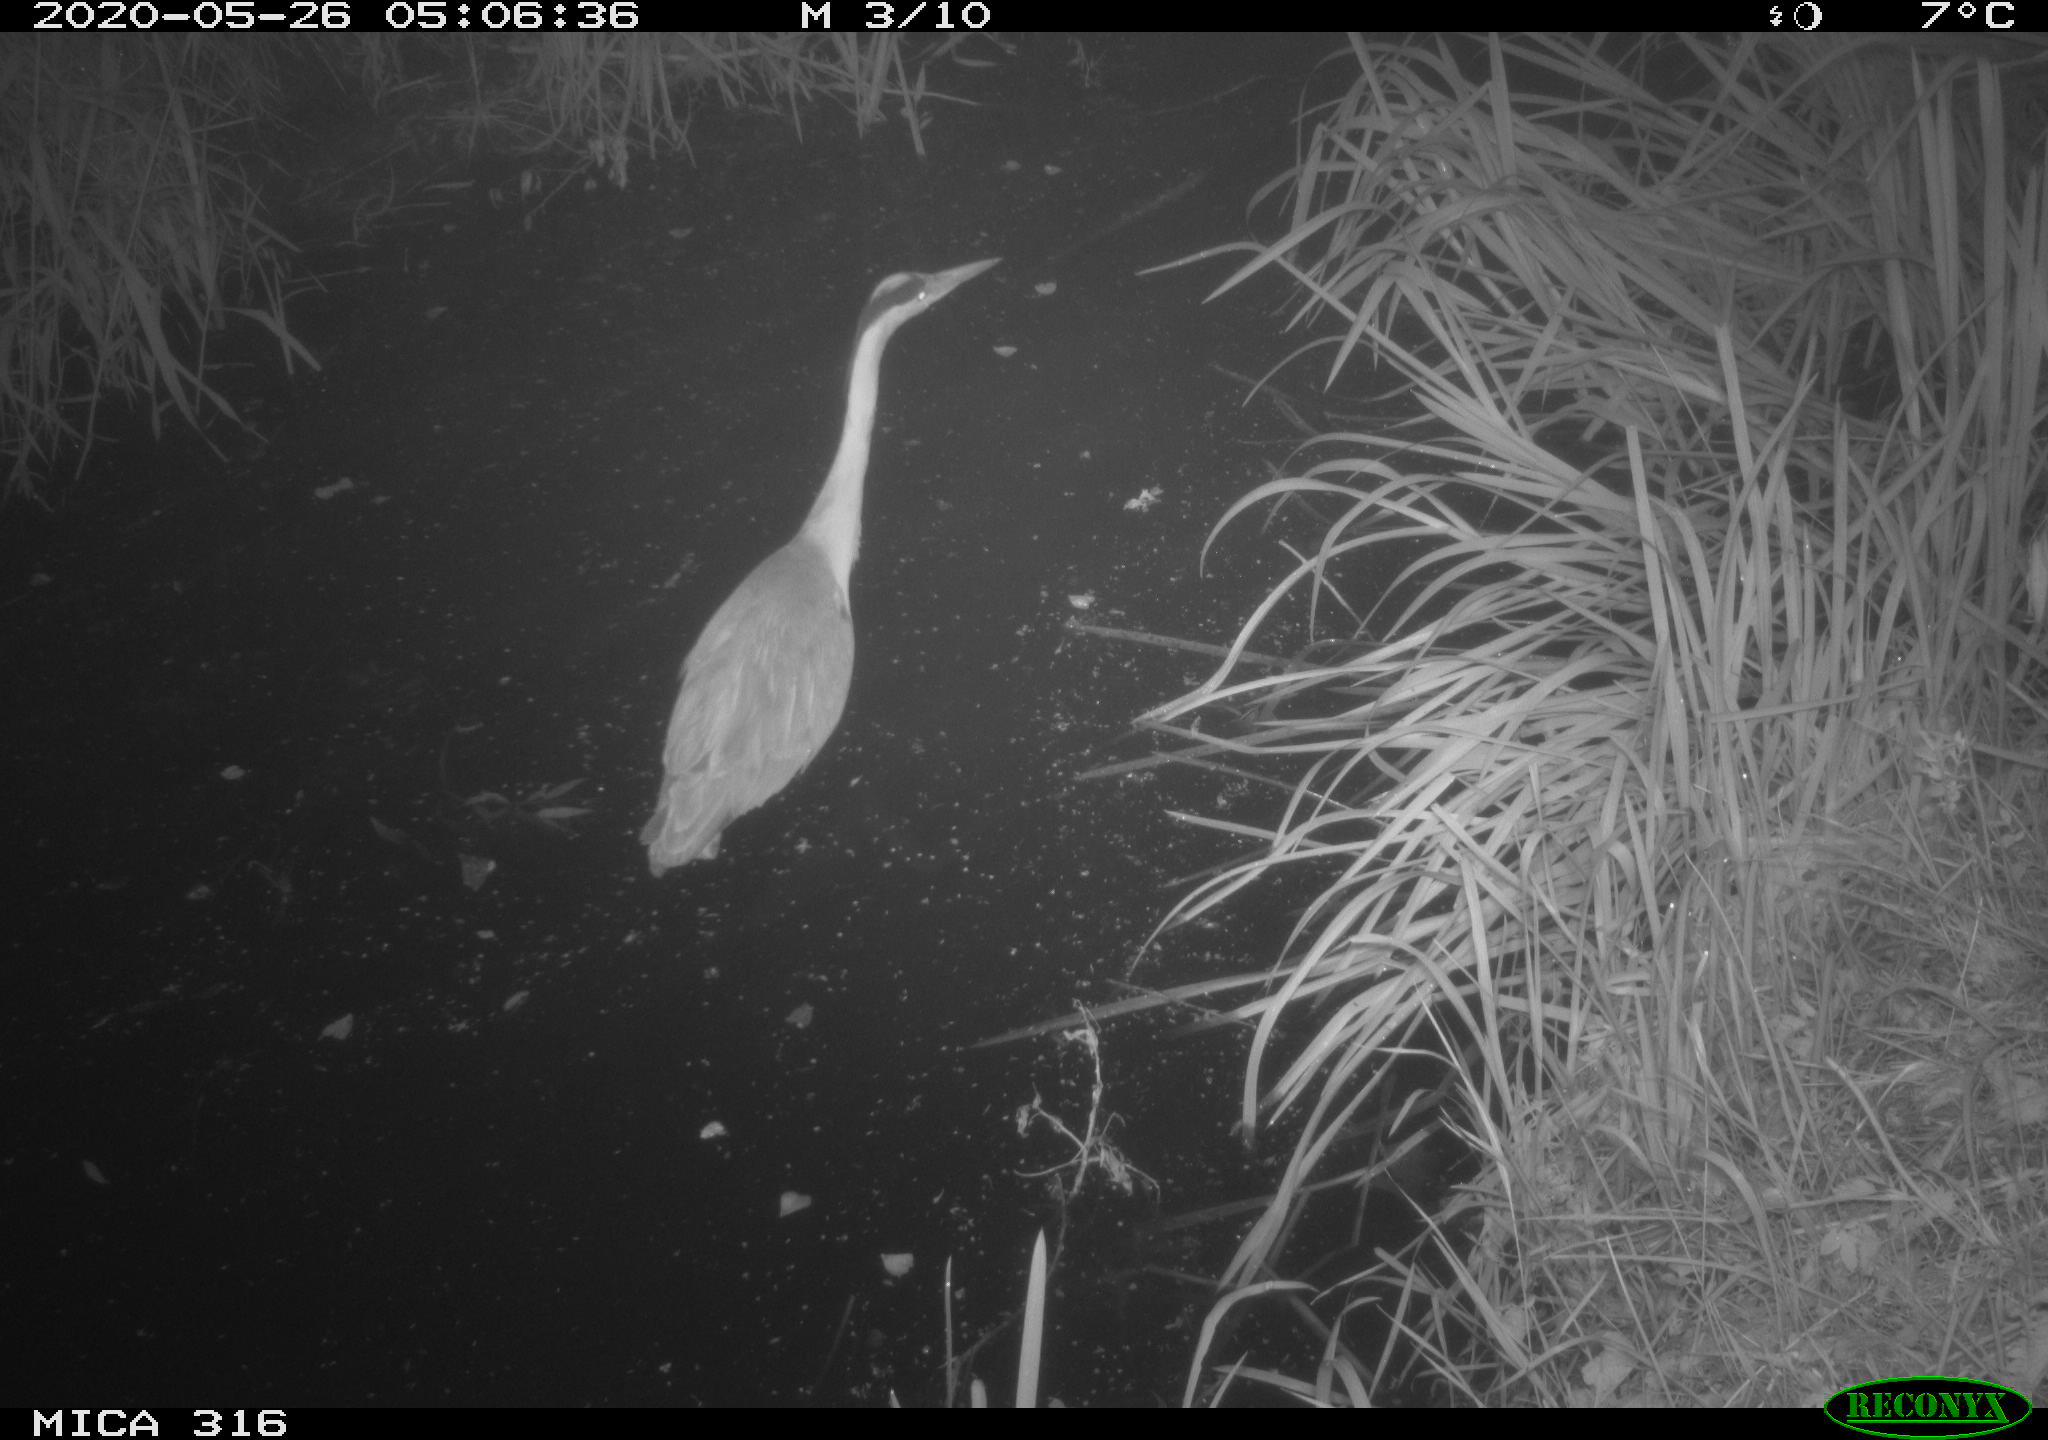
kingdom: Animalia
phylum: Chordata
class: Aves
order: Pelecaniformes
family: Ardeidae
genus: Ardea
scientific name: Ardea cinerea
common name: Grey heron
